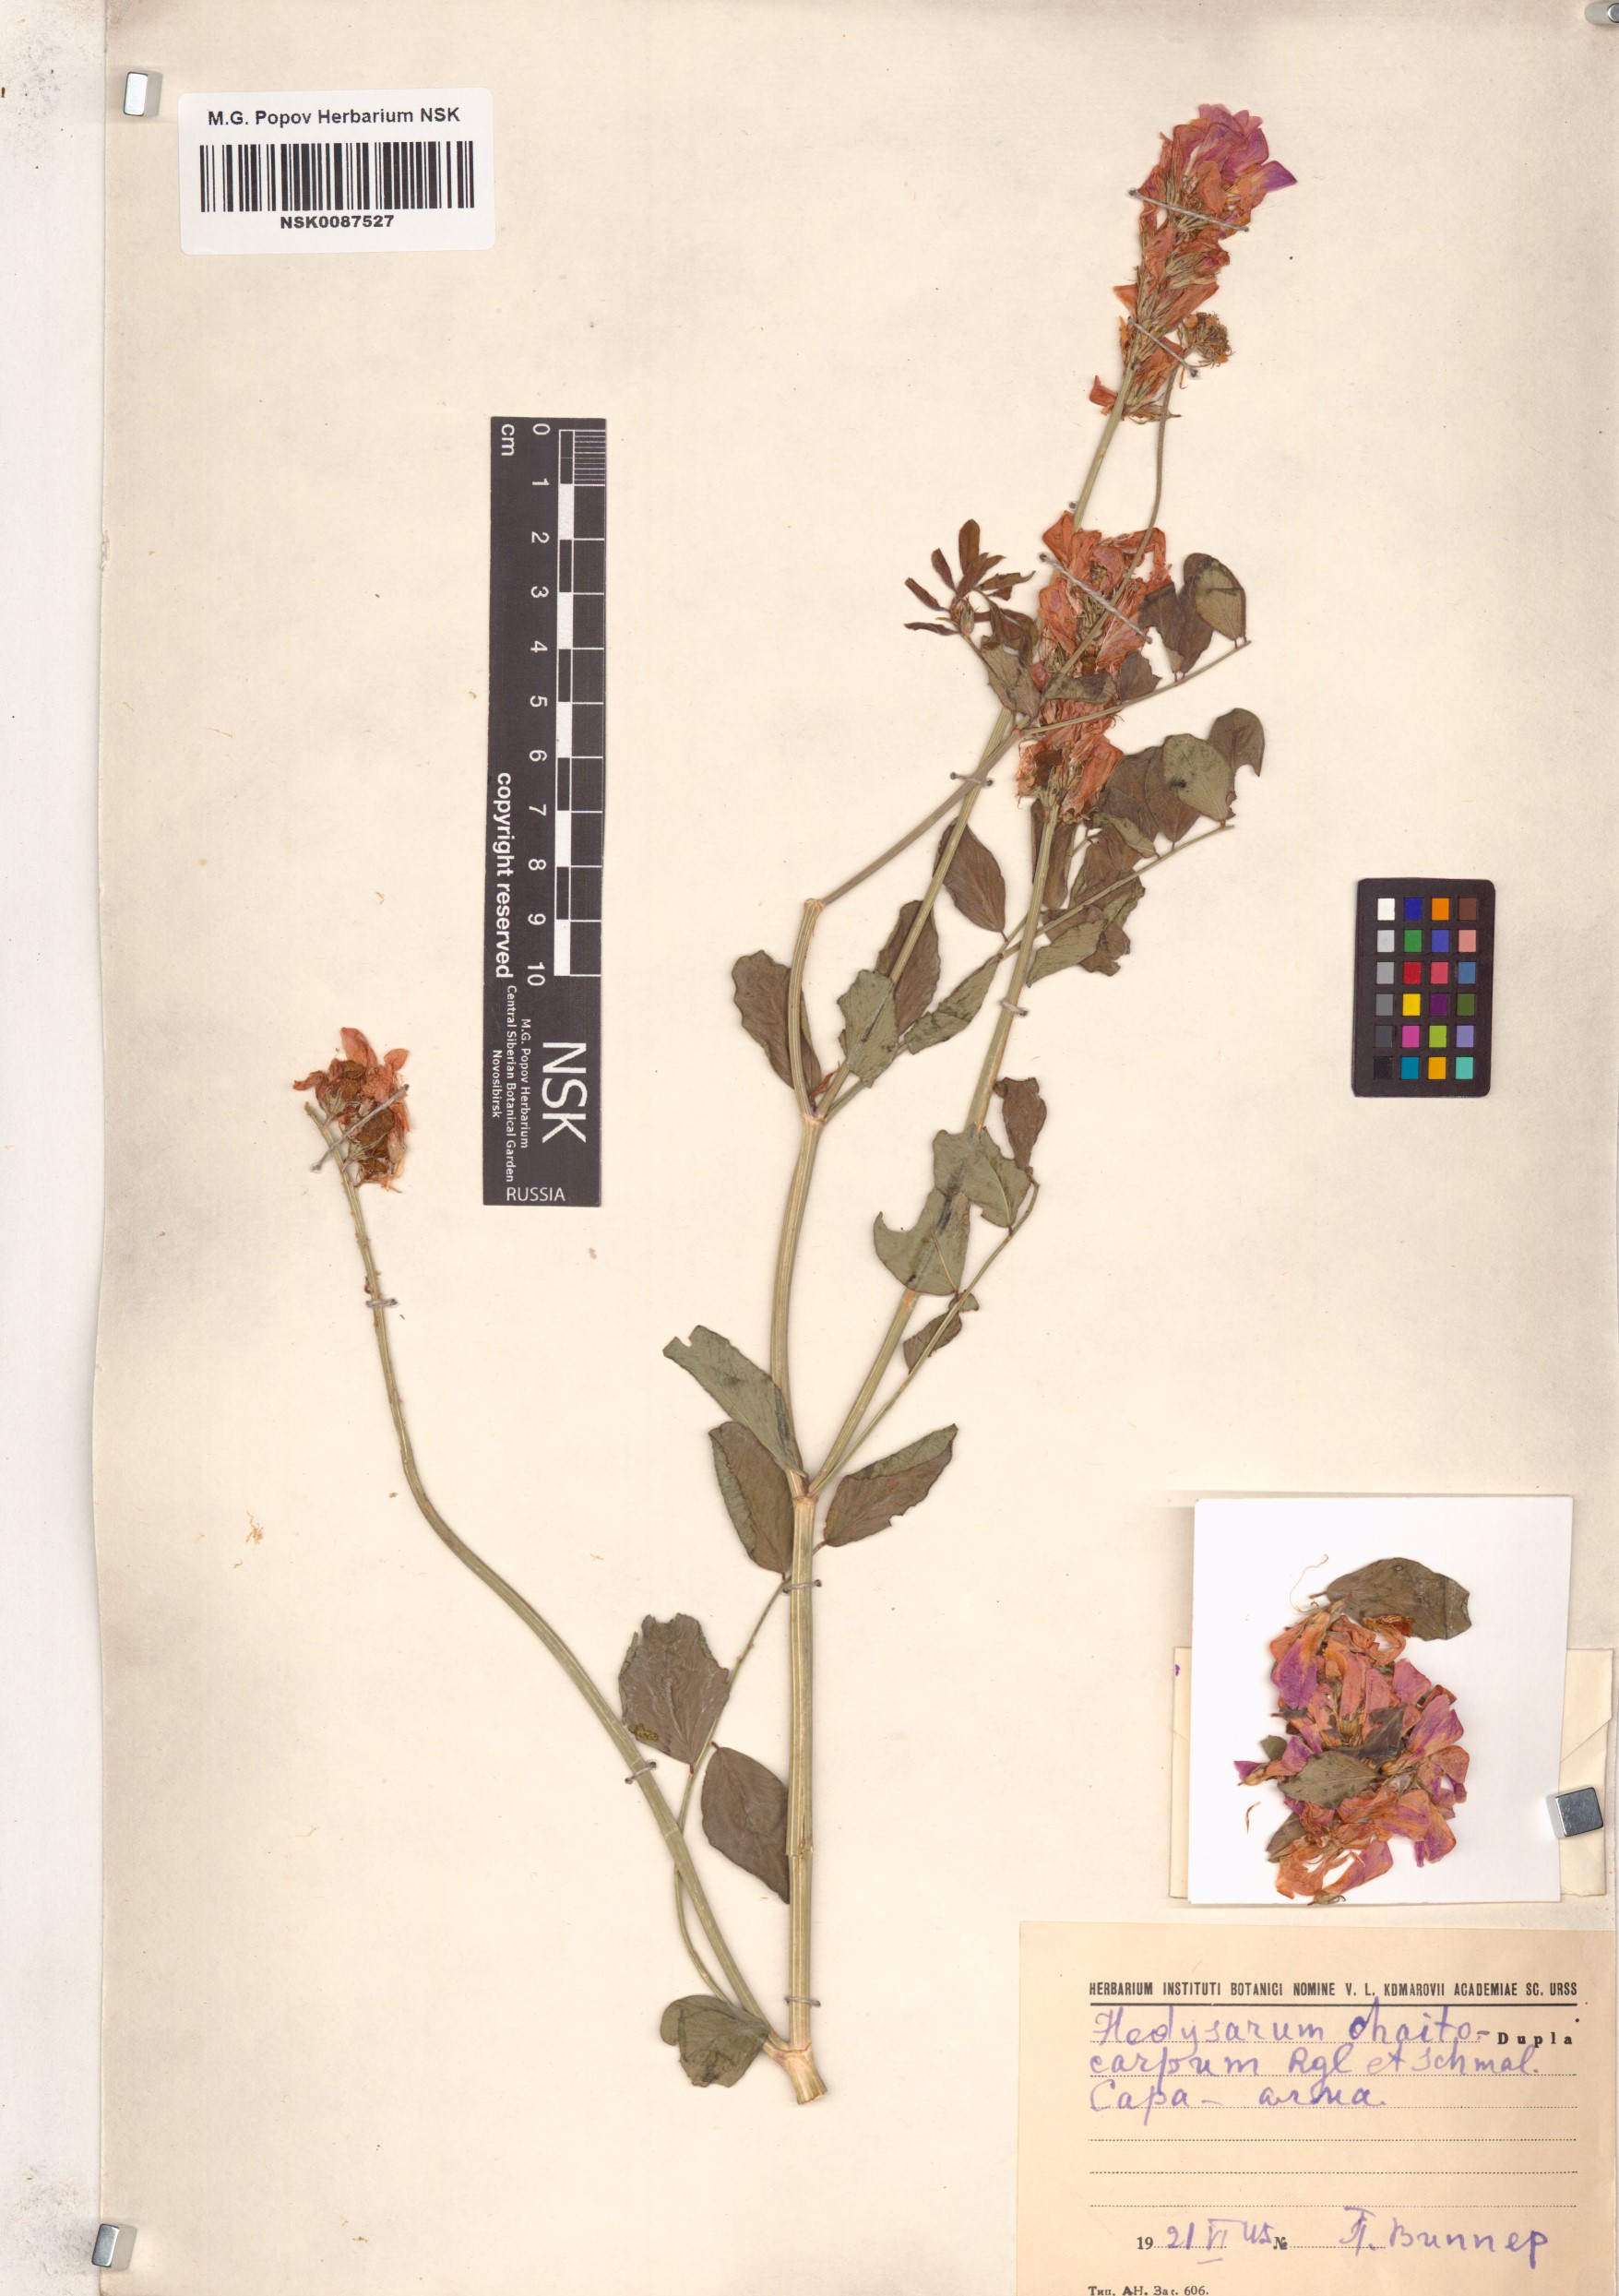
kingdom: Plantae
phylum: Tracheophyta
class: Magnoliopsida
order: Fabales
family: Fabaceae
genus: Hedysarum
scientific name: Hedysarum chaitocarpum
